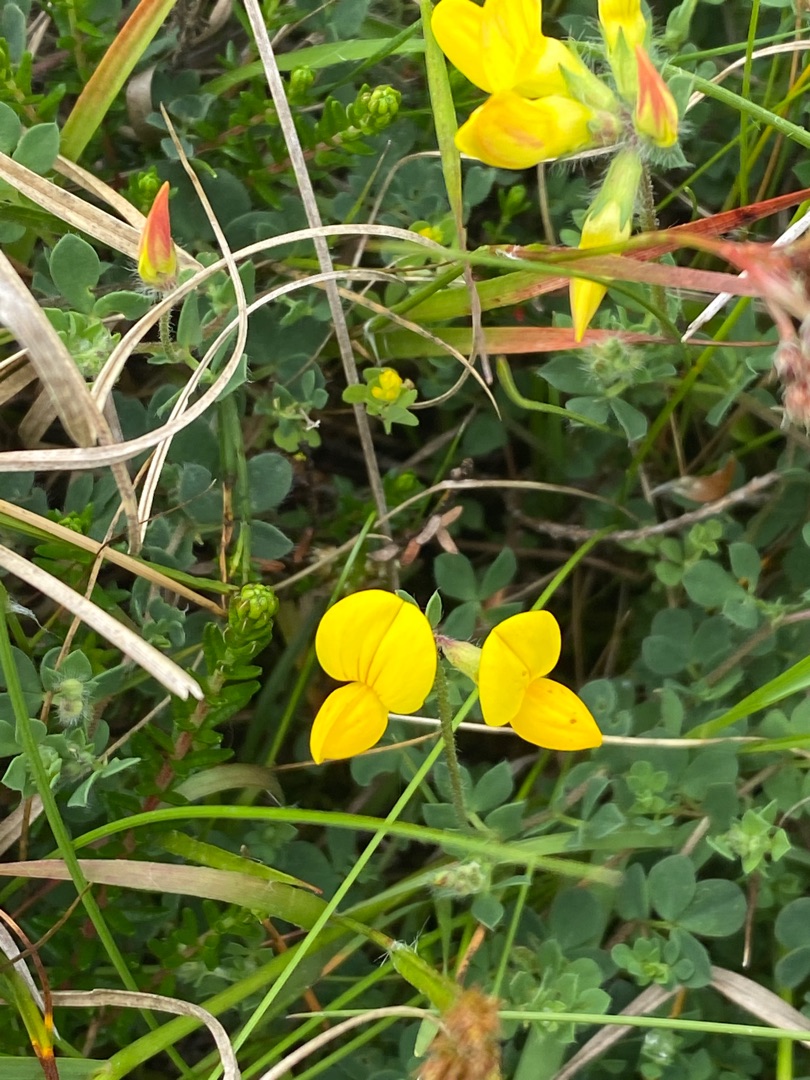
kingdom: Plantae
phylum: Tracheophyta
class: Magnoliopsida
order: Fabales
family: Fabaceae
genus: Lotus
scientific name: Lotus corniculatus
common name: Almindelig kællingetand
